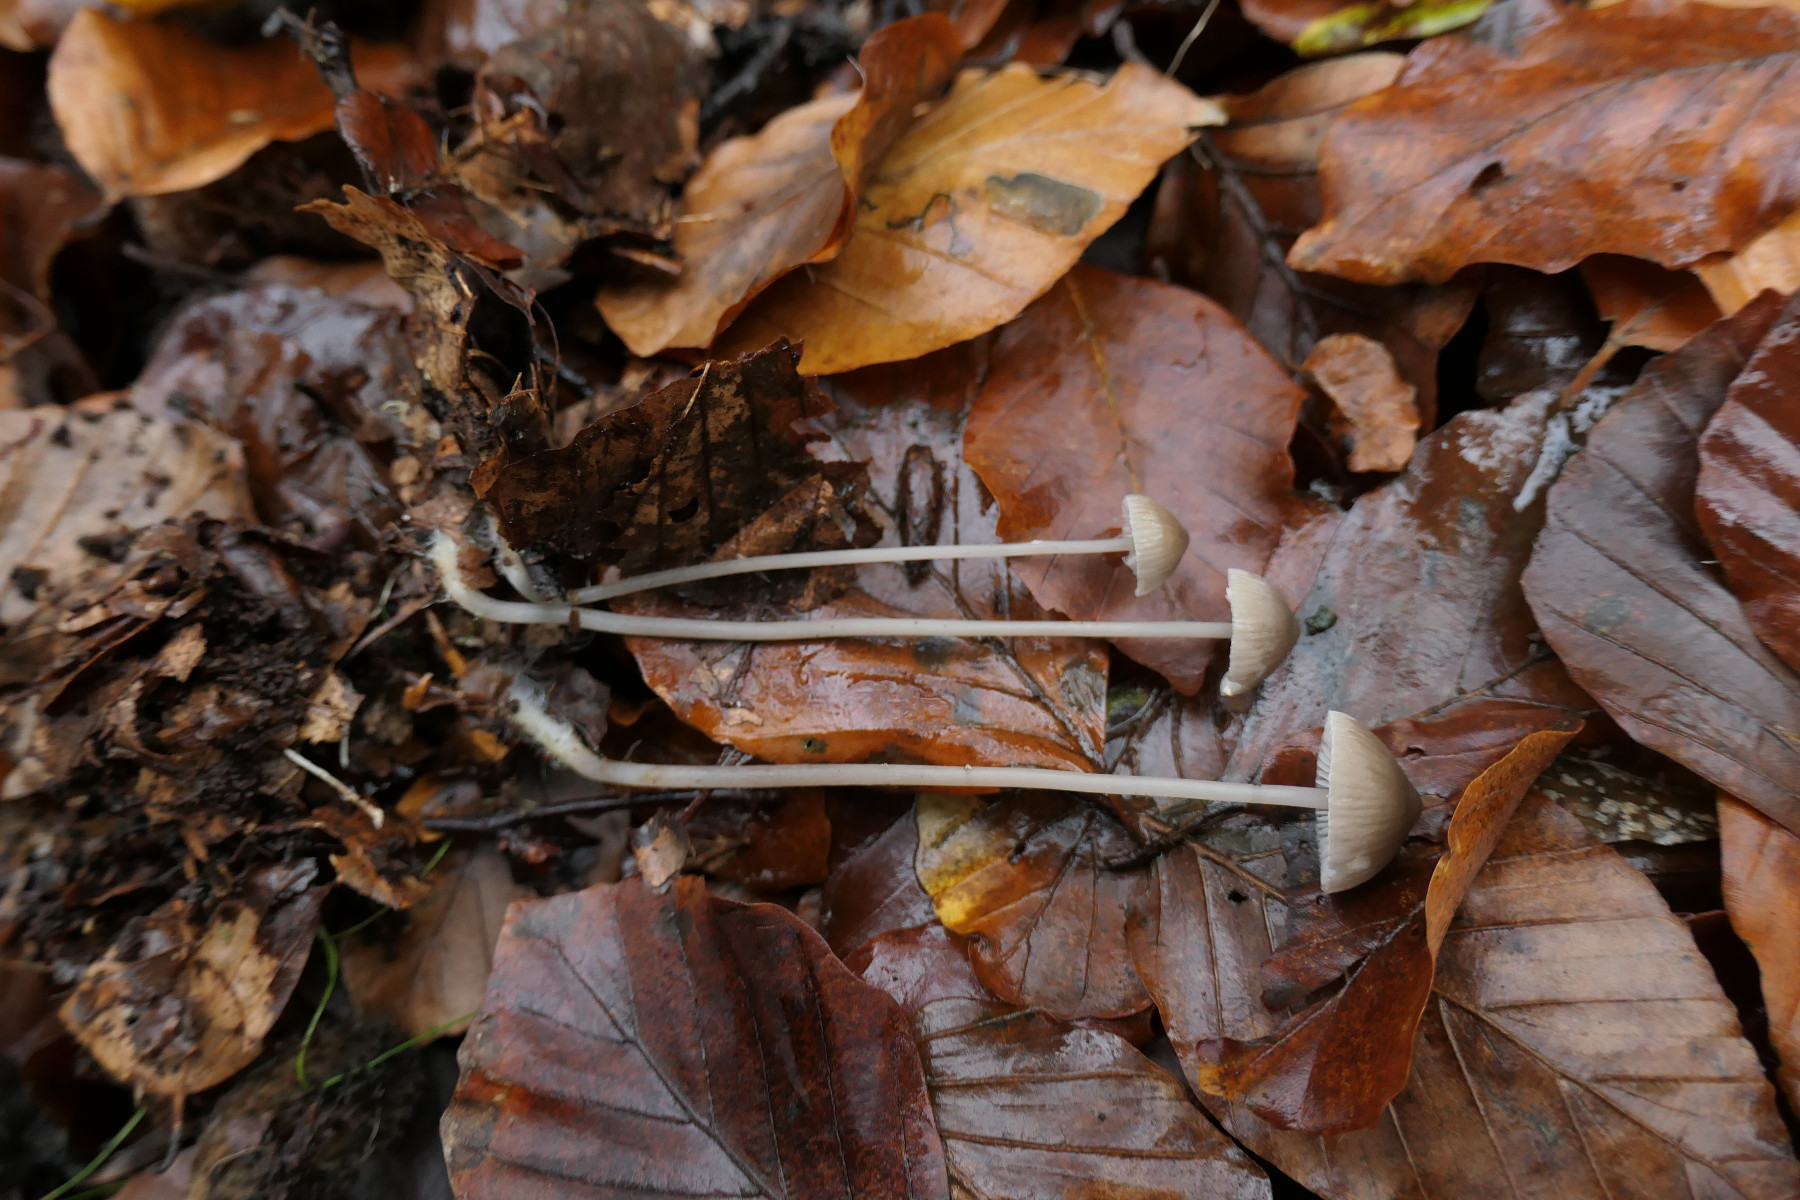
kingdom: Fungi
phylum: Basidiomycota
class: Agaricomycetes
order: Agaricales
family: Mycenaceae
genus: Mycena
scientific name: Mycena vitilis
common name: blankstokket huesvamp
